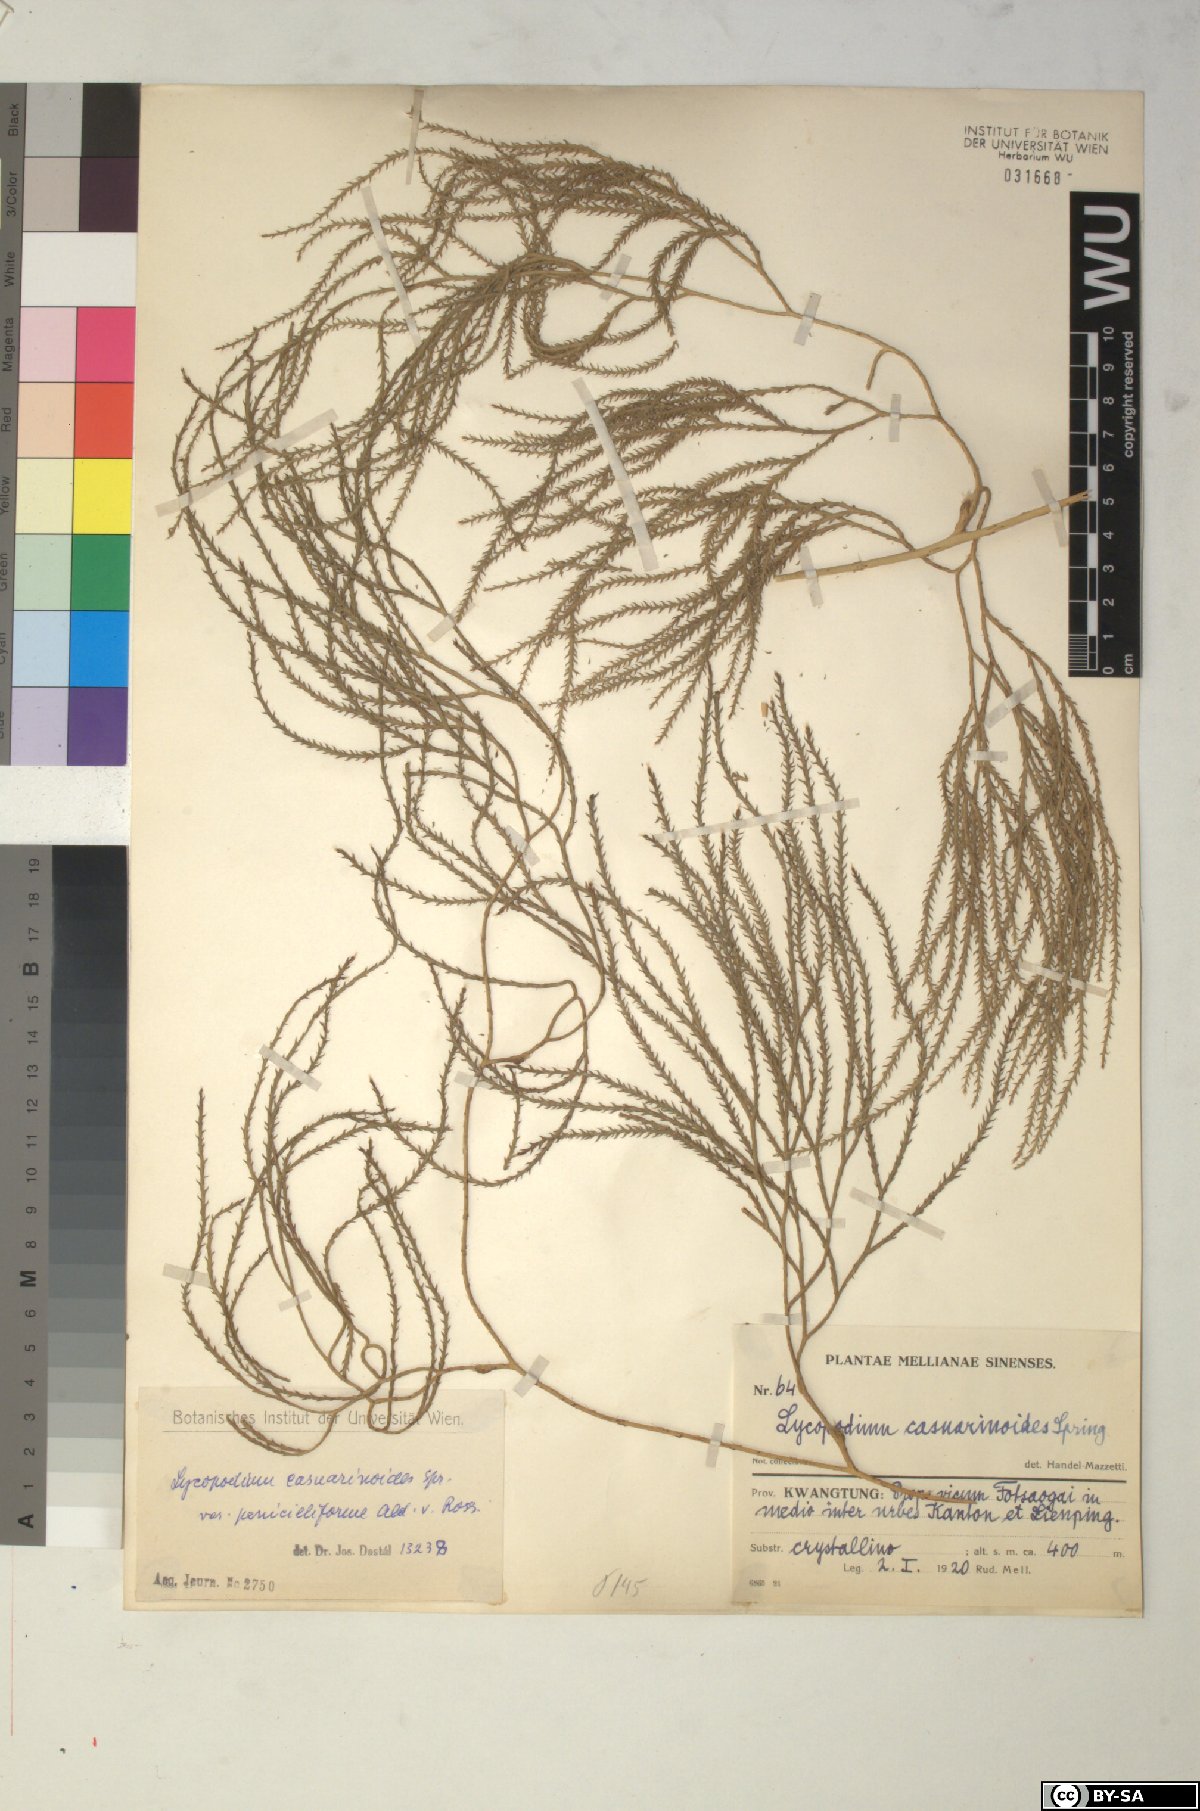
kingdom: Plantae
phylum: Tracheophyta
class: Lycopodiopsida
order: Lycopodiales
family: Lycopodiaceae
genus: Lycopodiastrum
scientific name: Lycopodiastrum casuarinoides
